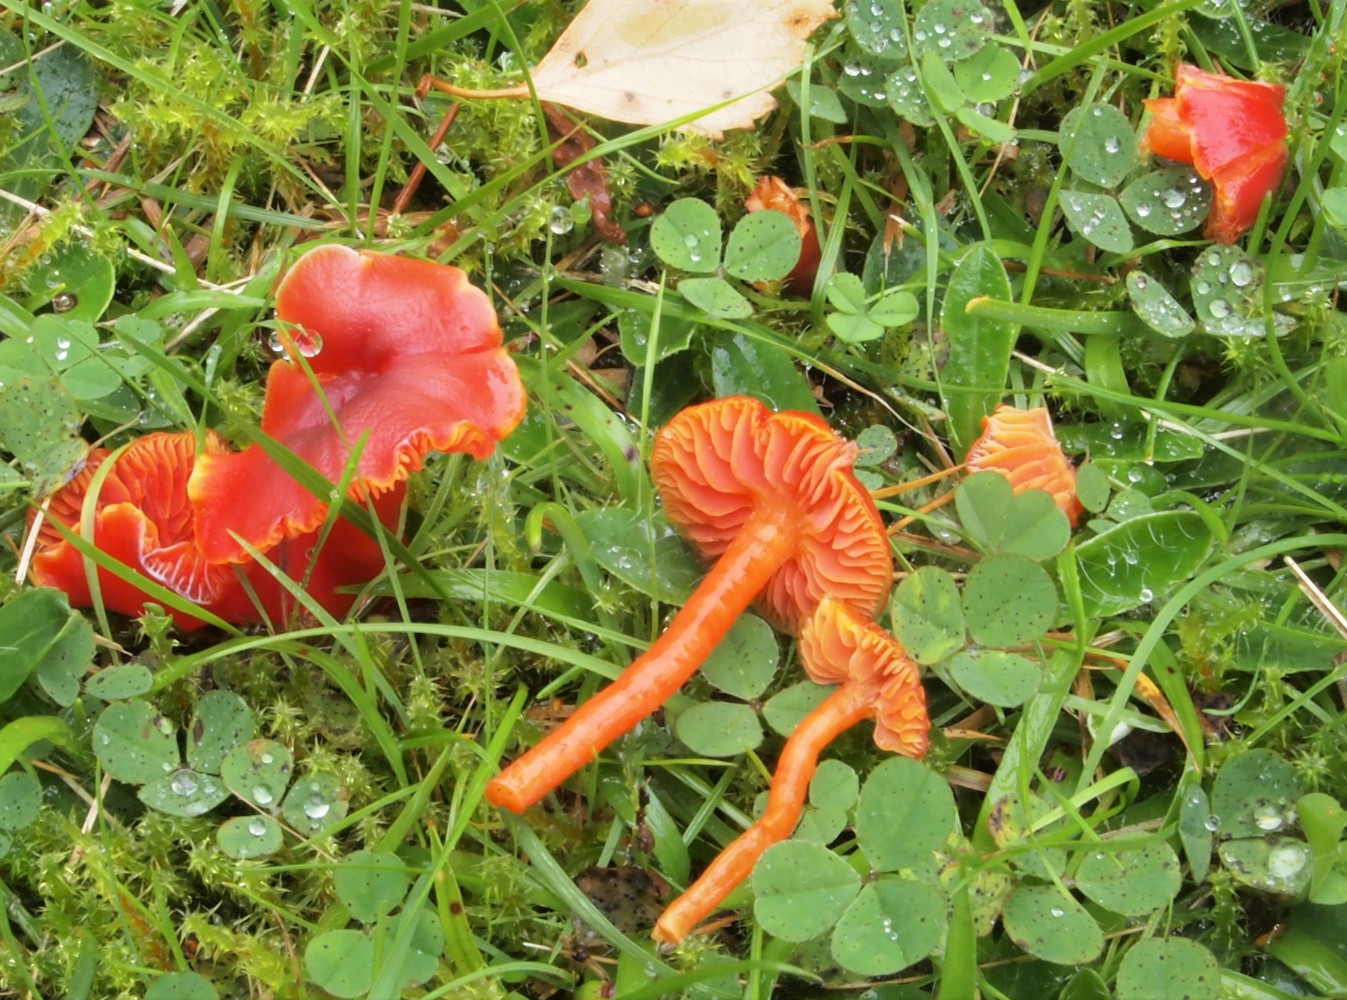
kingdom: Fungi
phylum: Basidiomycota
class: Agaricomycetes
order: Agaricales
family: Hygrophoraceae
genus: Hygrocybe
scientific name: Hygrocybe
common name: vokshat
